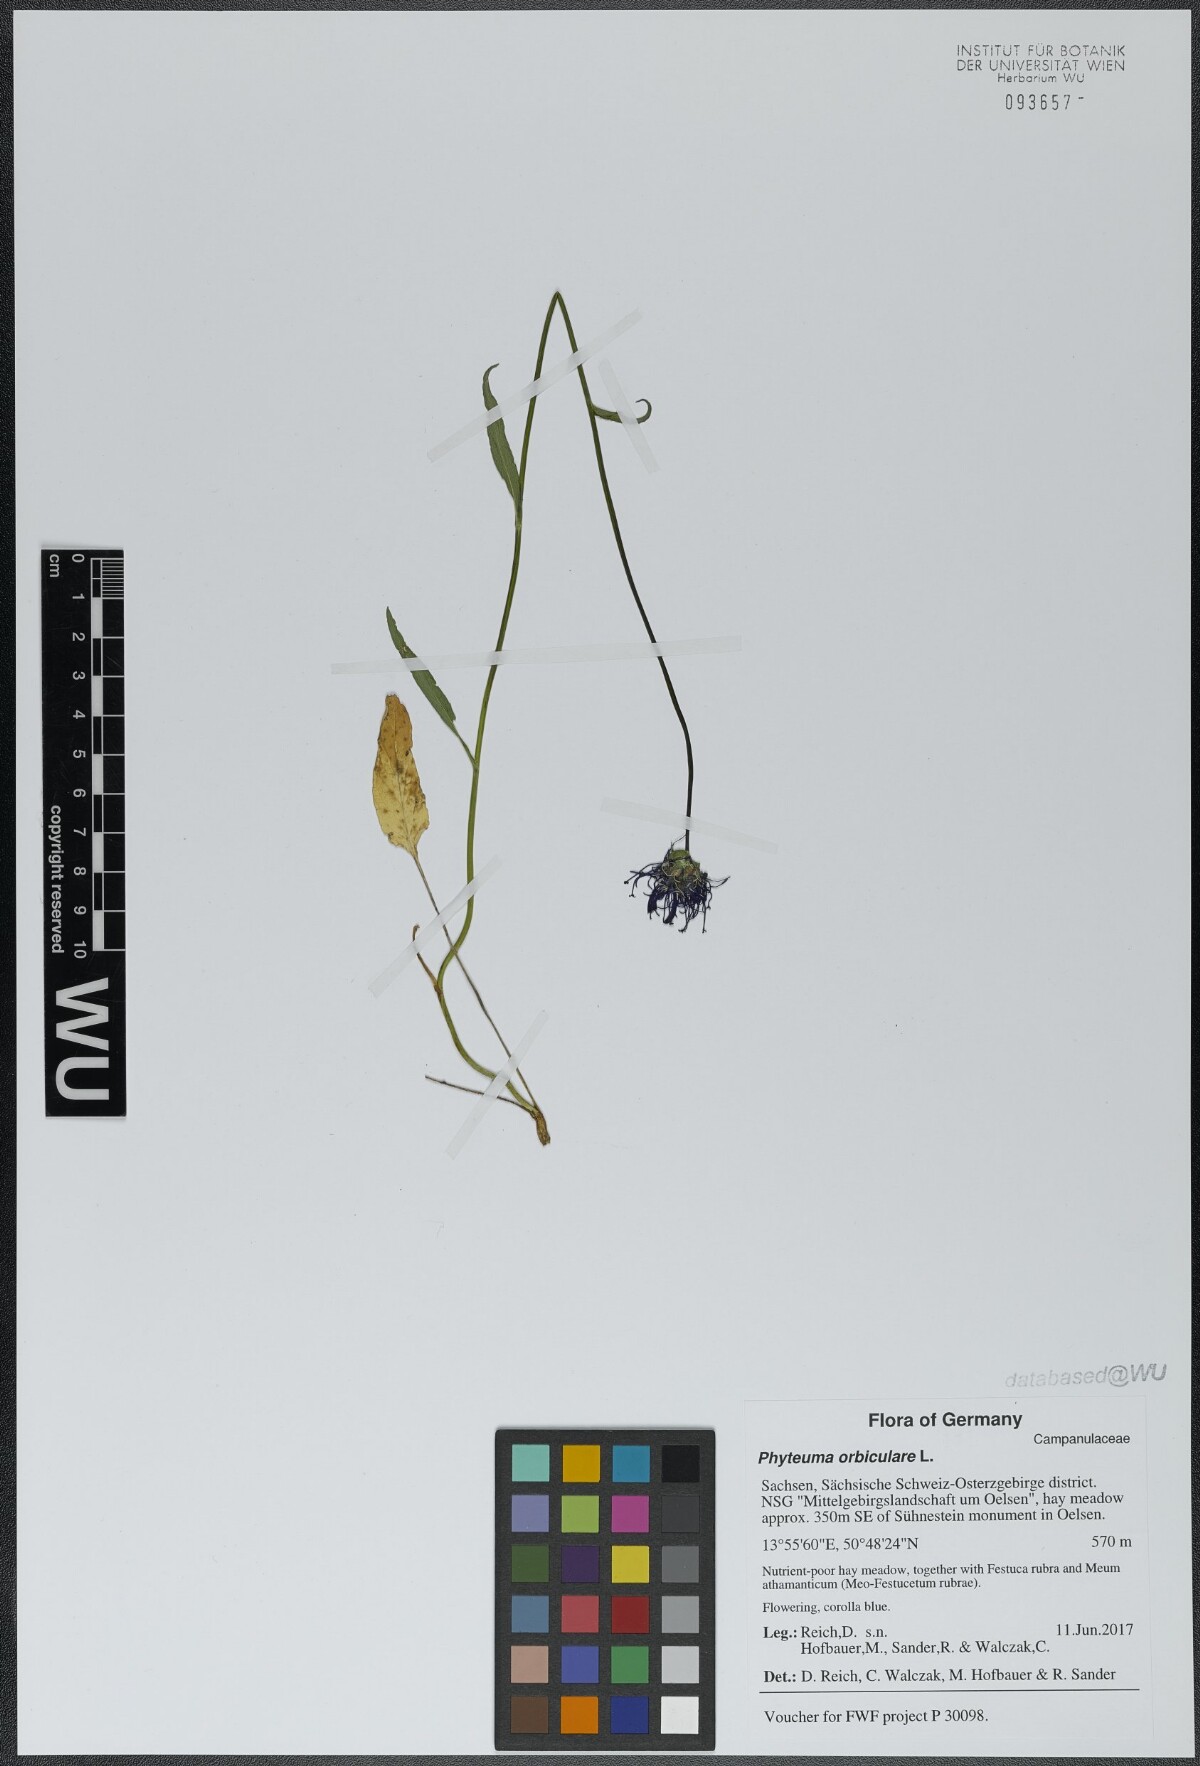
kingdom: Plantae
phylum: Tracheophyta
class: Magnoliopsida
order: Asterales
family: Campanulaceae
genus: Phyteuma
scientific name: Phyteuma orbiculare
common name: Round-headed rampion
